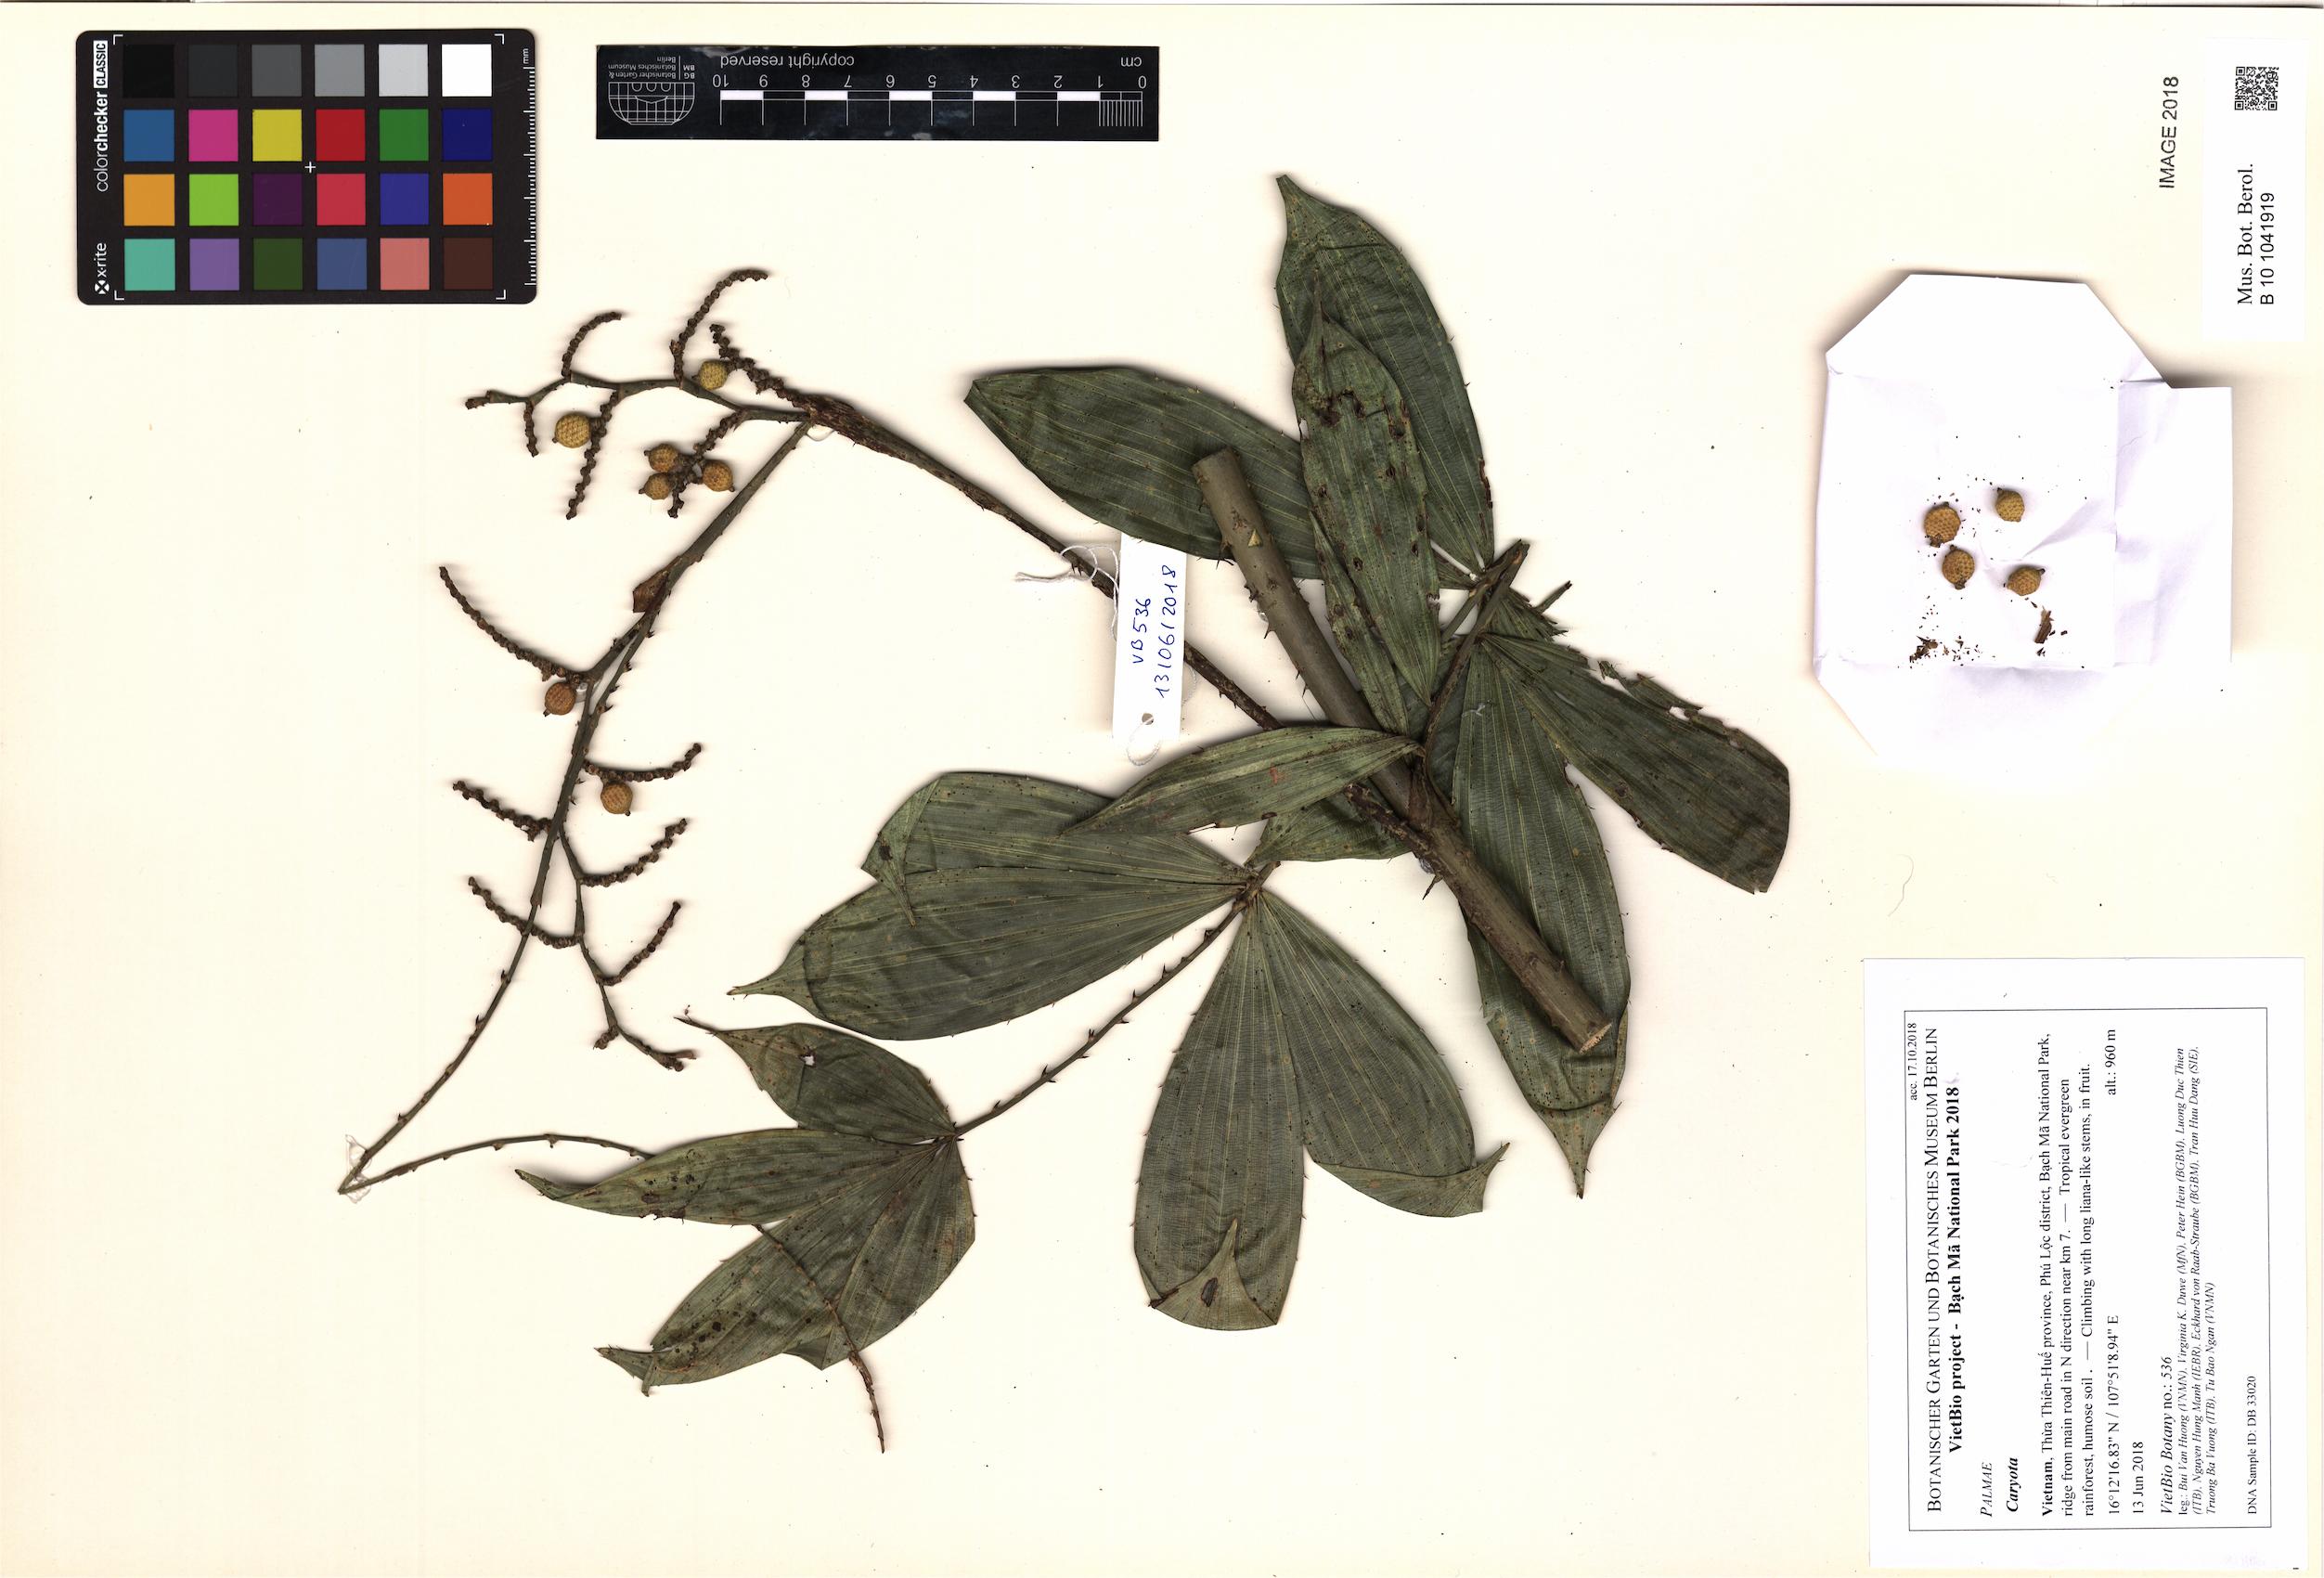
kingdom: Plantae
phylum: Tracheophyta
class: Liliopsida
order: Arecales
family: Arecaceae
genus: Caryota
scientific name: Caryota
